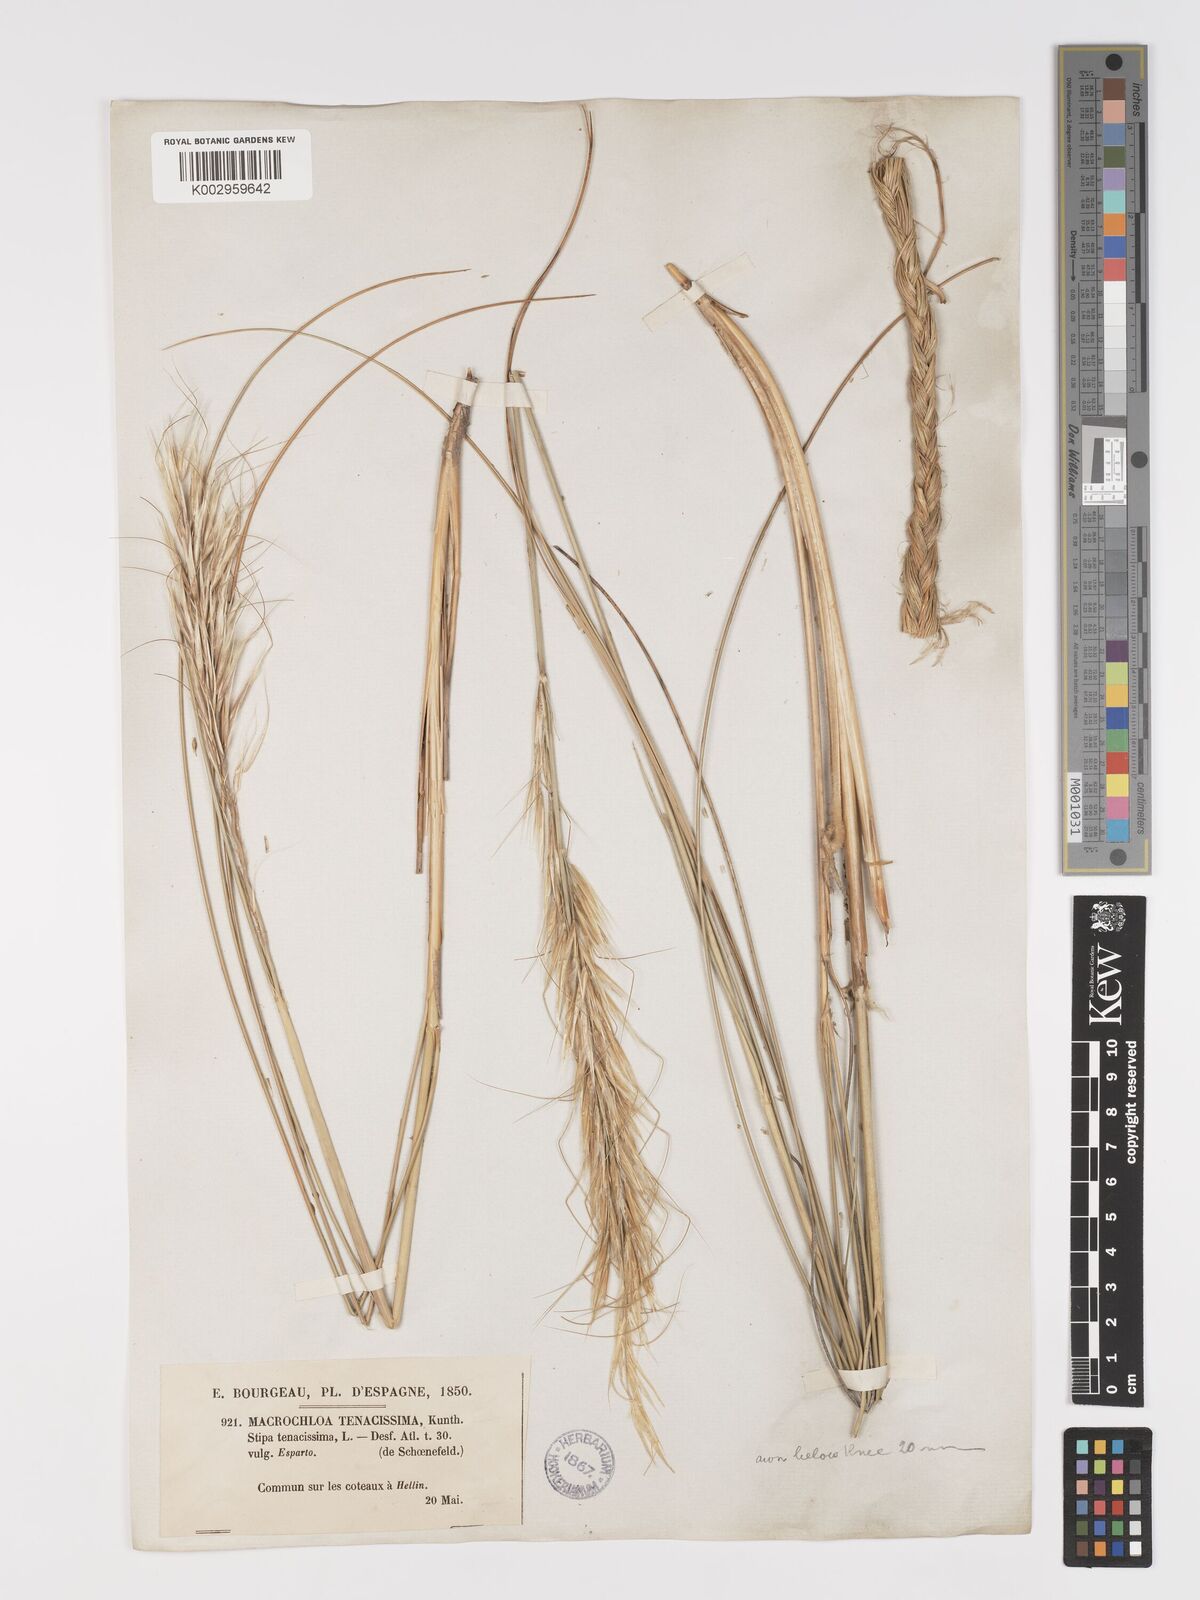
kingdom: Plantae
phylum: Tracheophyta
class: Liliopsida
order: Poales
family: Poaceae
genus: Macrochloa
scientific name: Macrochloa tenacissima
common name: Alfa grass
